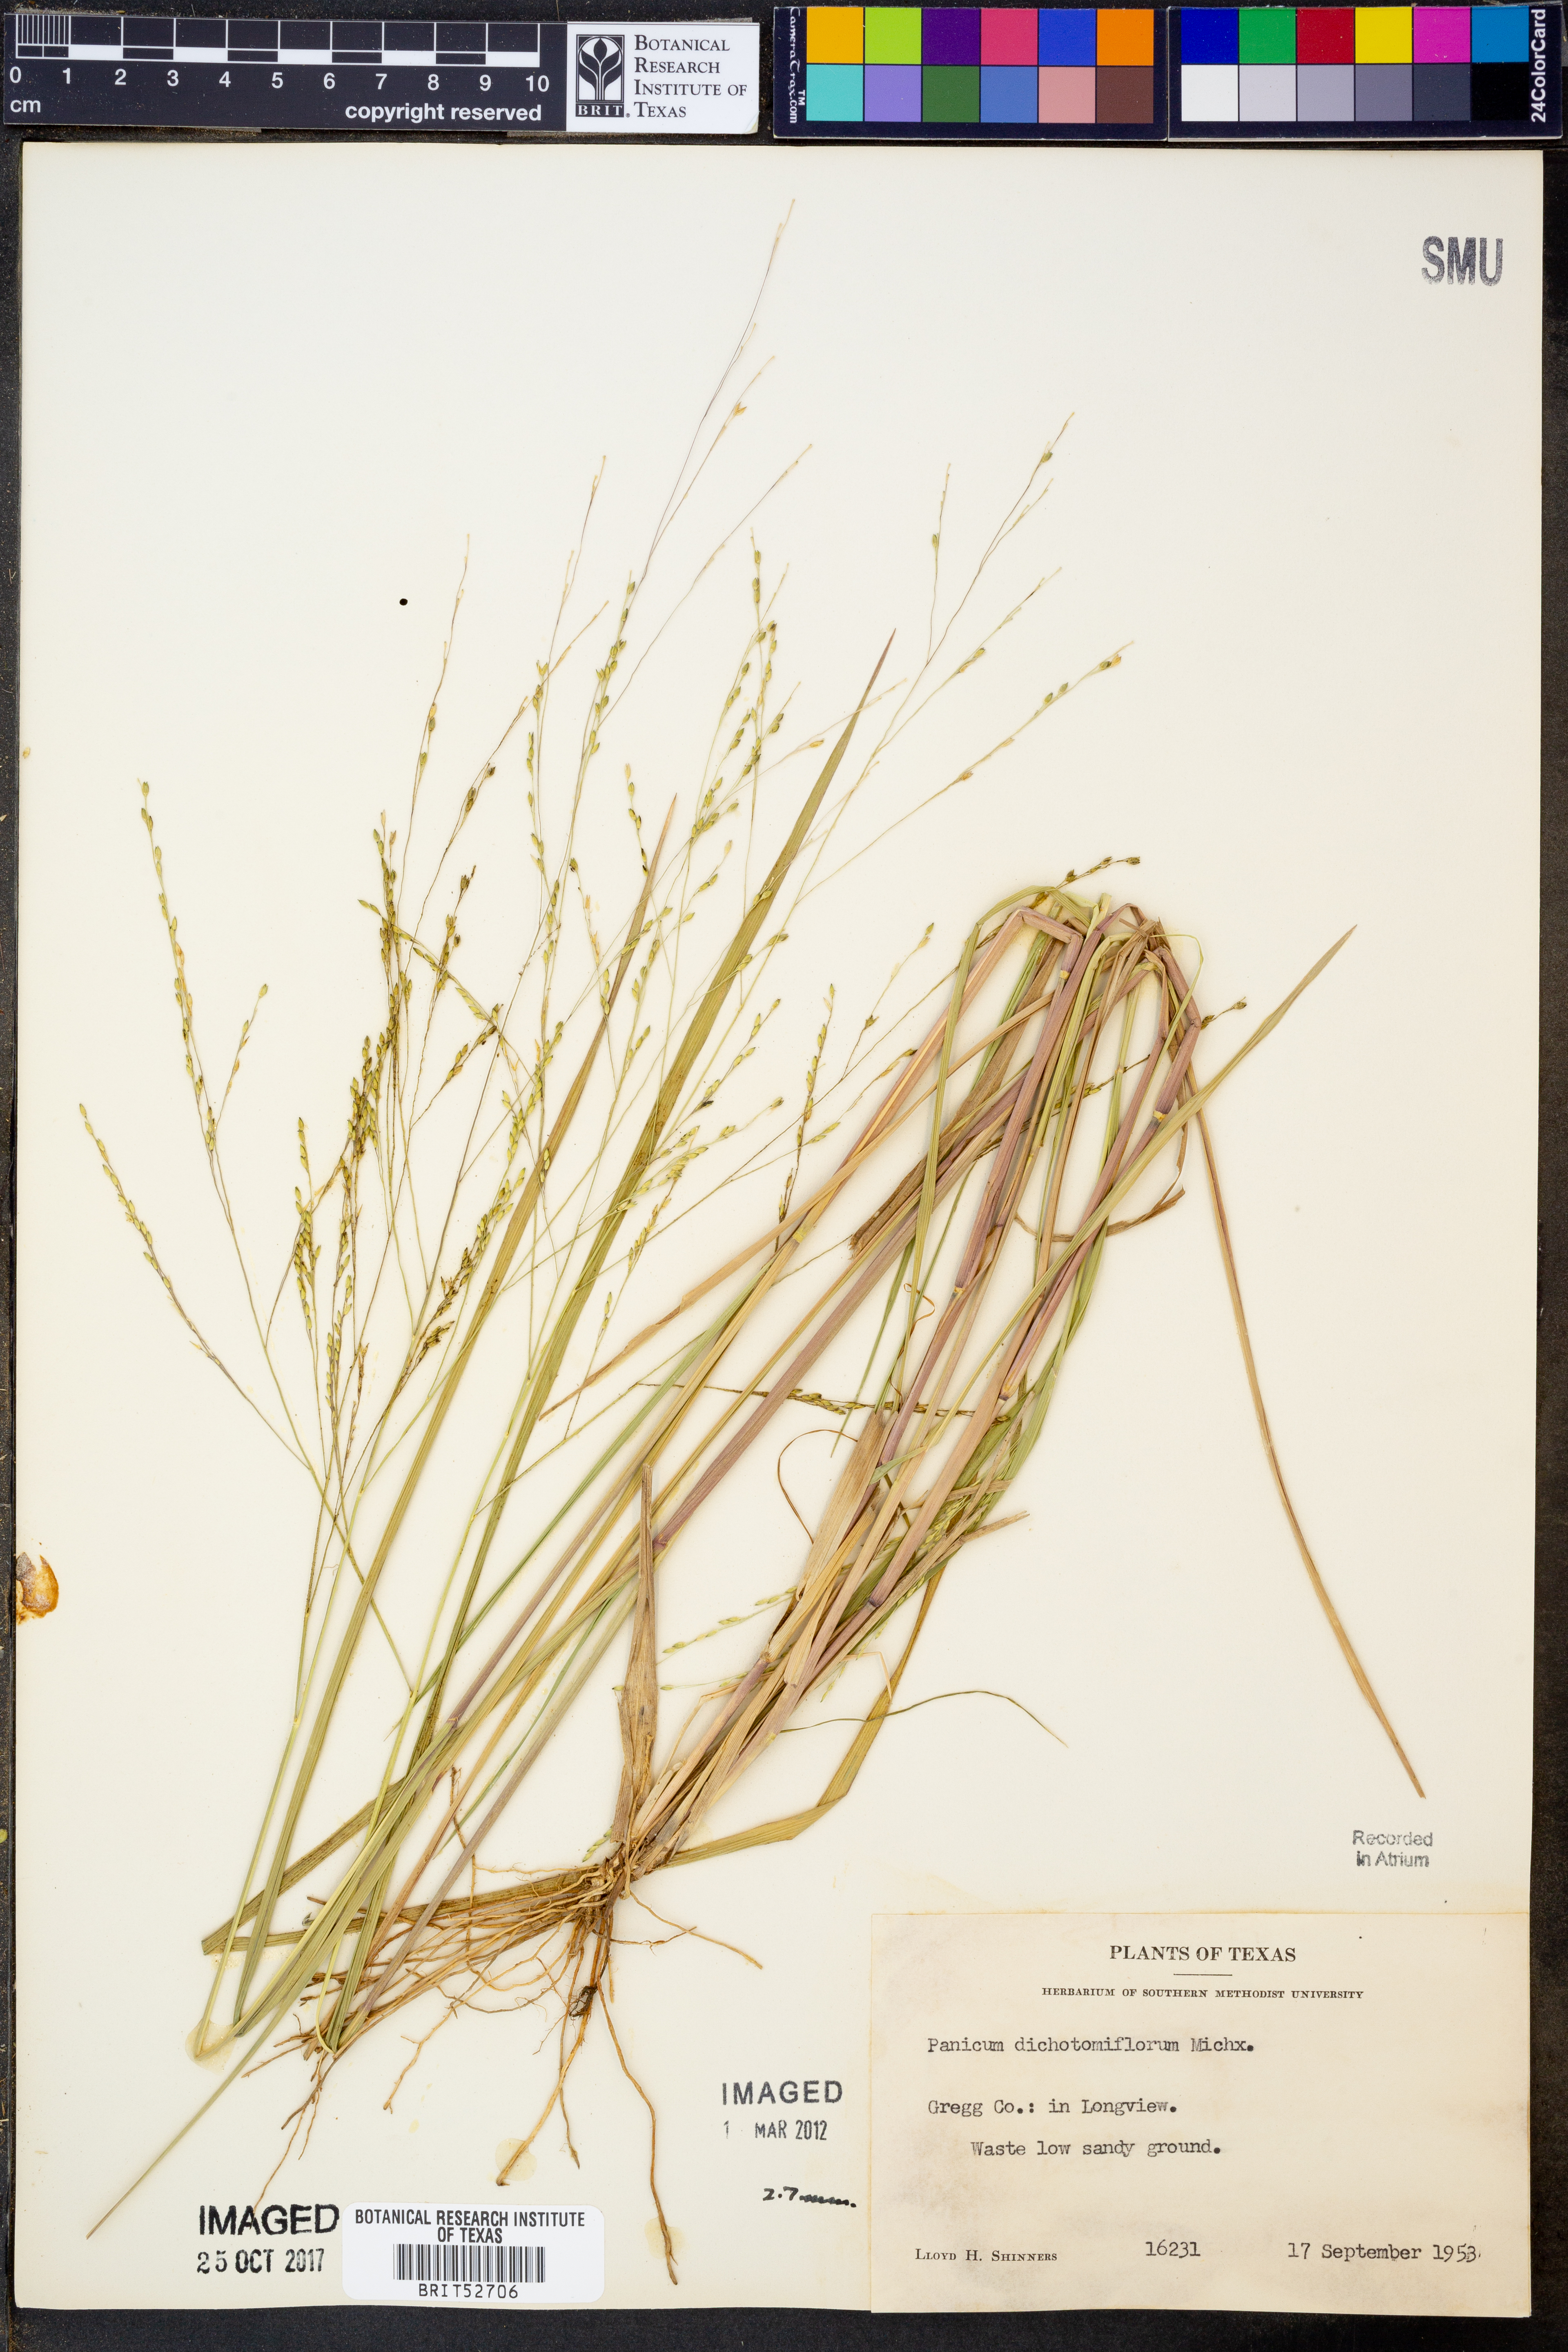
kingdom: Plantae
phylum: Tracheophyta
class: Liliopsida
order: Poales
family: Poaceae
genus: Panicum
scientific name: Panicum dichotomiflorum
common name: Autumn millet
